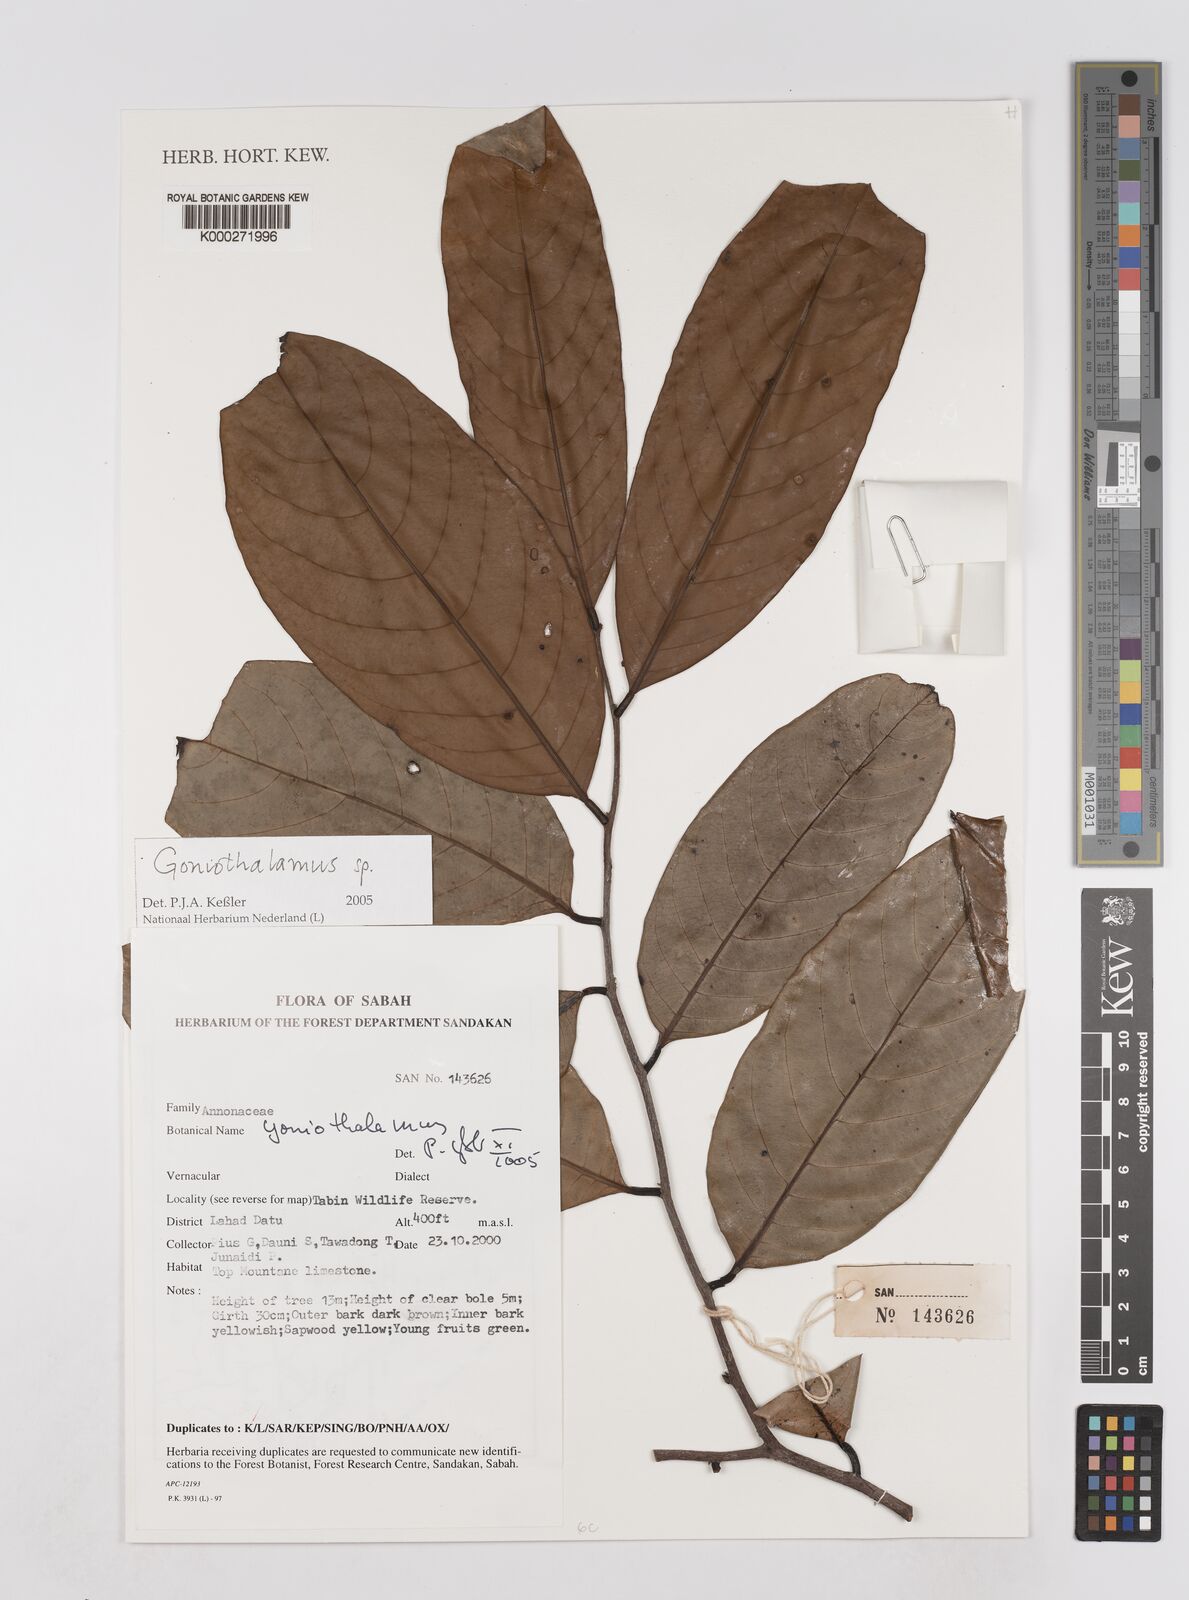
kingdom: Plantae
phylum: Tracheophyta
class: Magnoliopsida
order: Magnoliales
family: Annonaceae
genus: Goniothalamus
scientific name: Goniothalamus
